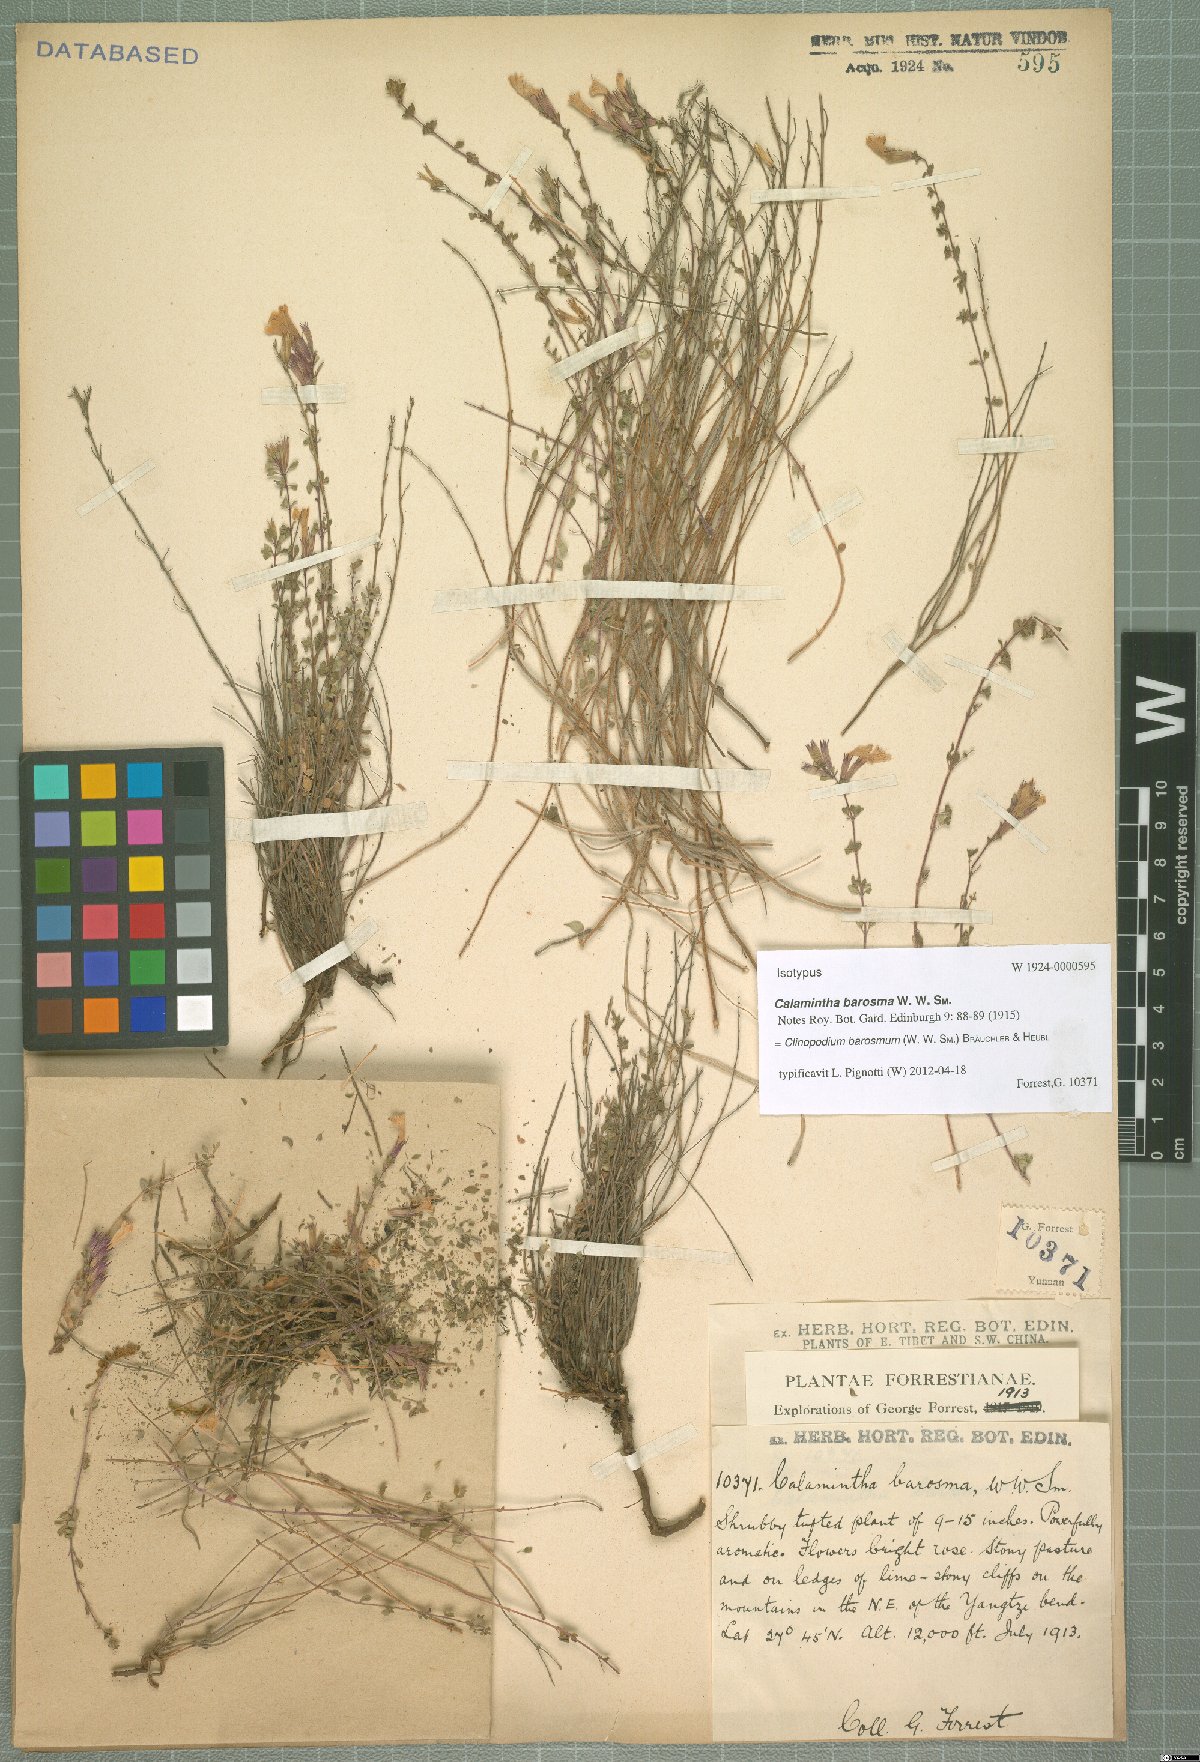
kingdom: Plantae
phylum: Tracheophyta
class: Magnoliopsida
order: Lamiales
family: Lamiaceae
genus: Clinopodium
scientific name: Clinopodium barosmum
